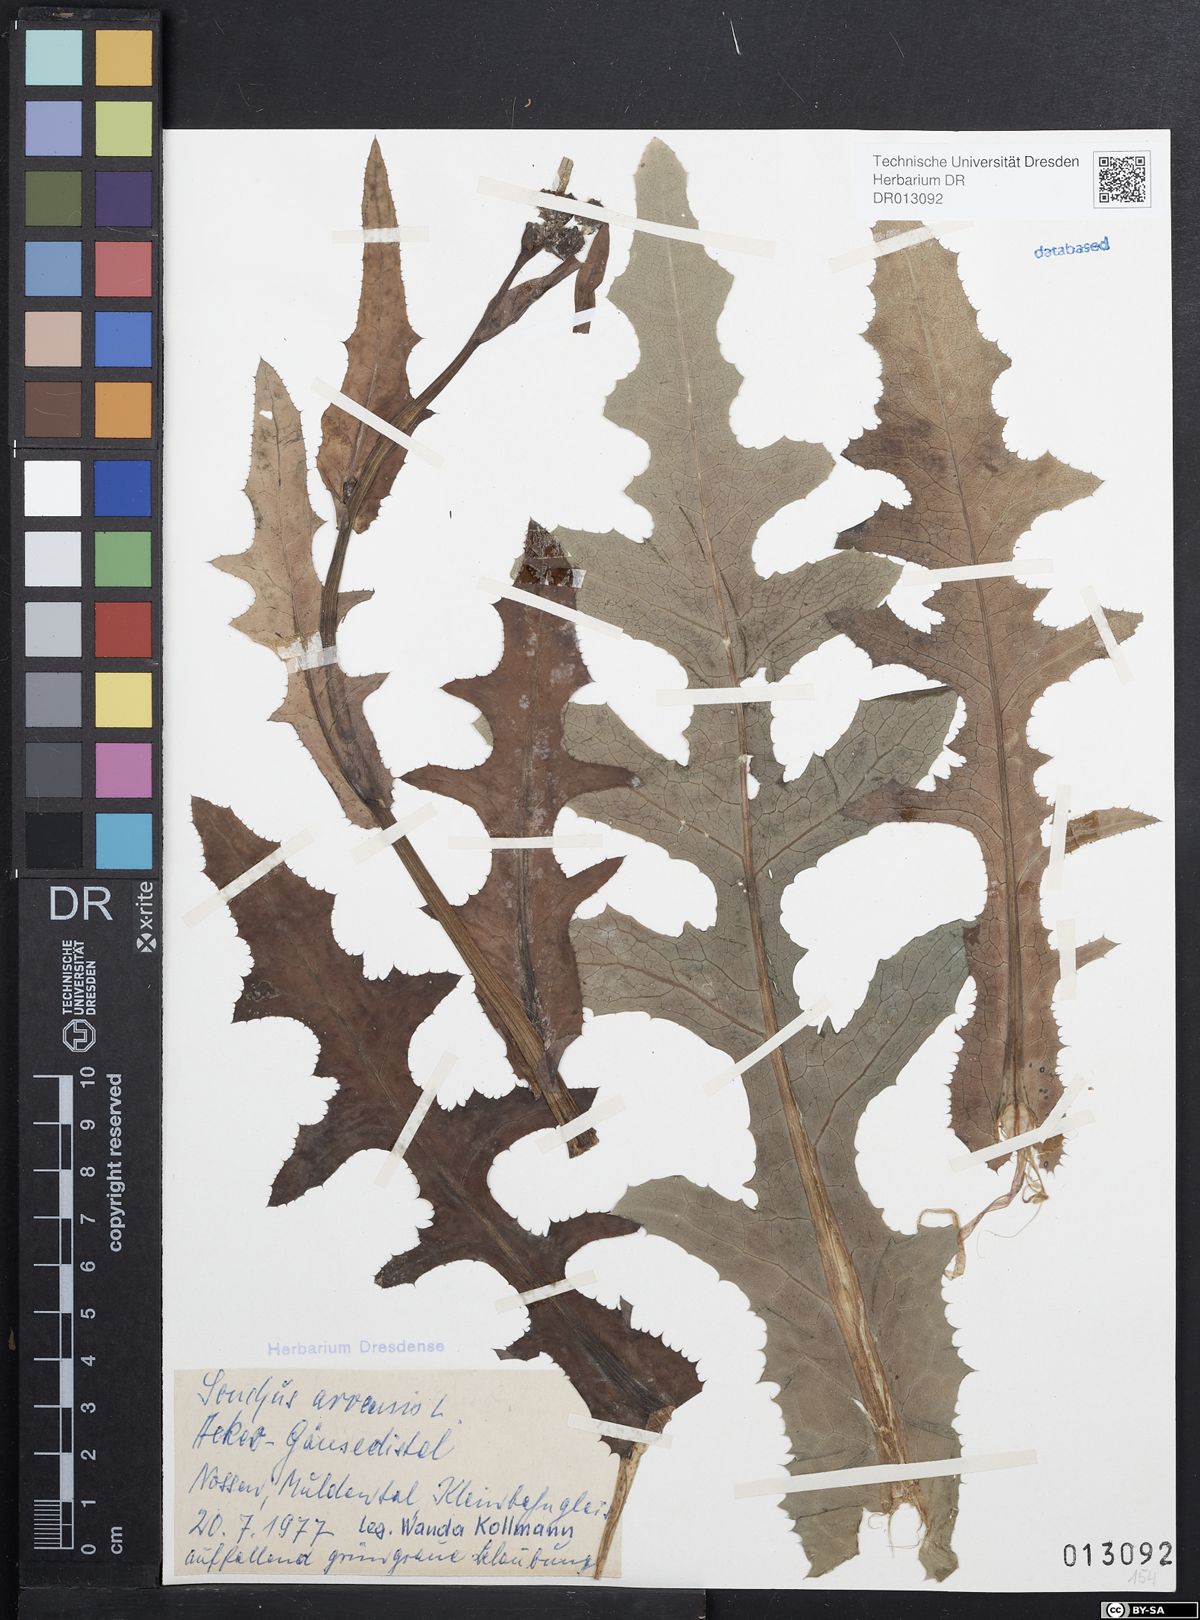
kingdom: Plantae
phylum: Tracheophyta
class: Magnoliopsida
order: Asterales
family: Asteraceae
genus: Sonchus
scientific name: Sonchus arvensis
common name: Perennial sow-thistle
